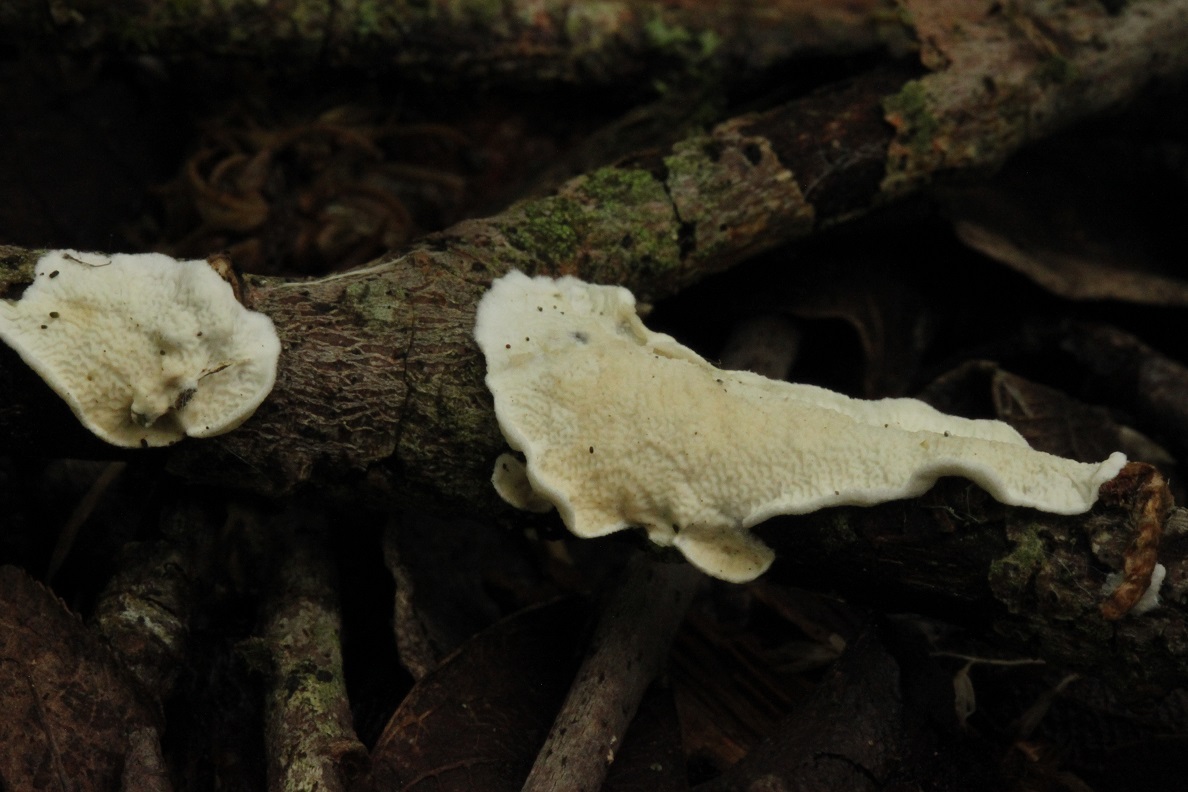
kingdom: Fungi
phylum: Basidiomycota
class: Agaricomycetes
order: Polyporales
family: Irpicaceae
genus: Byssomerulius
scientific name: Byssomerulius corium
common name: læder-åresvamp
